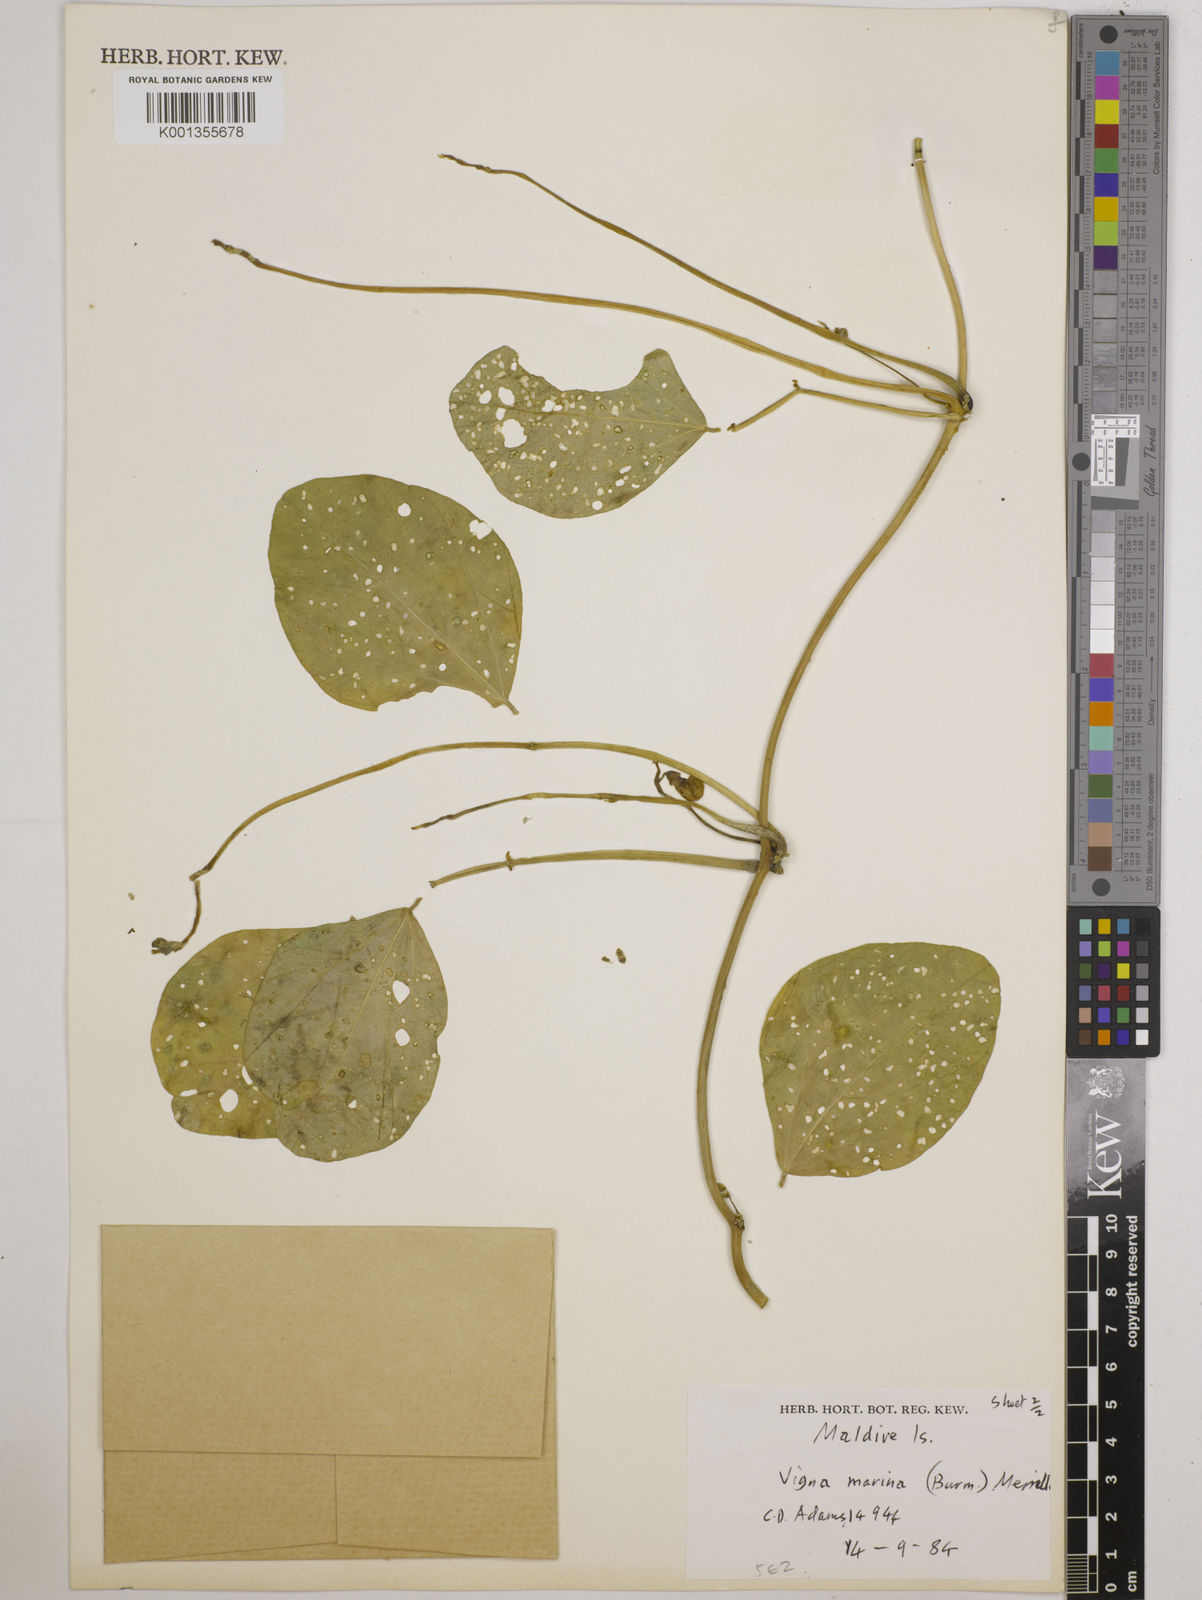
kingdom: Plantae
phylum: Tracheophyta
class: Magnoliopsida
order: Fabales
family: Fabaceae
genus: Vigna
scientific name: Vigna marina
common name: Dune-bean
